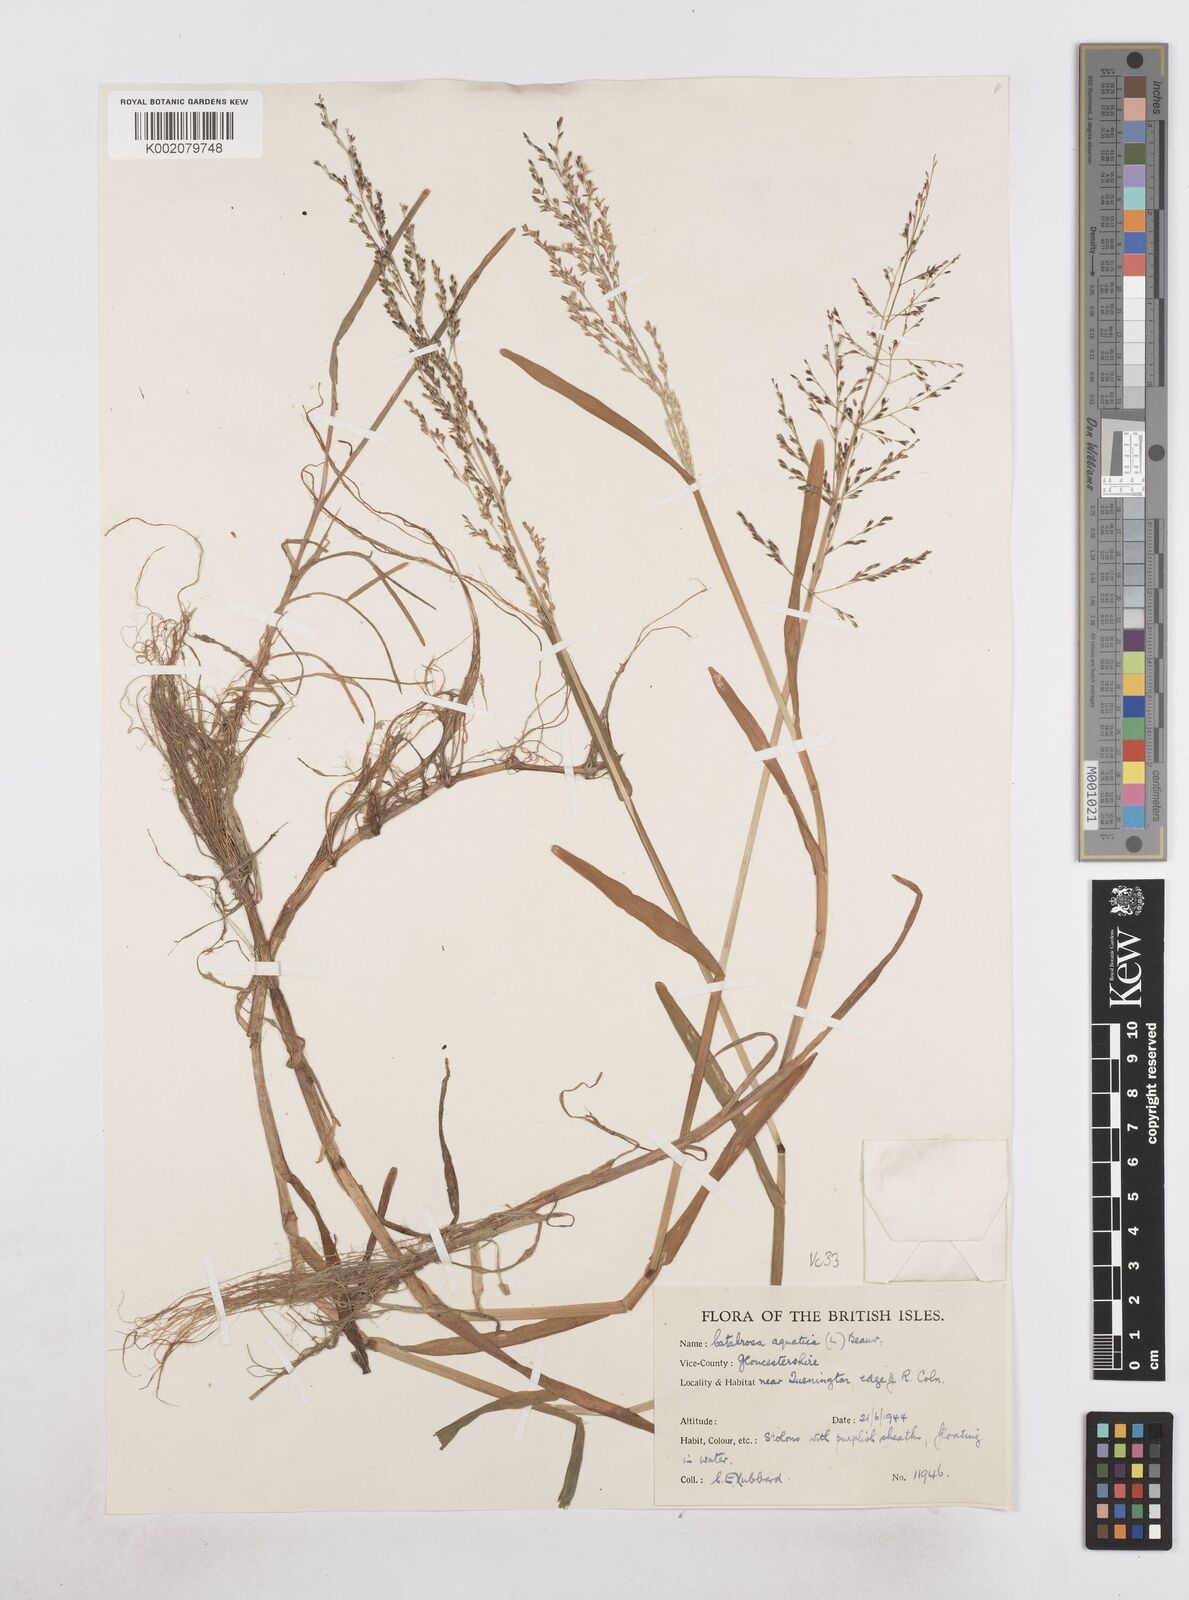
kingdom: Plantae
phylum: Tracheophyta
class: Liliopsida
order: Poales
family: Poaceae
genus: Catabrosa
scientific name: Catabrosa aquatica
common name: Whorl-grass
